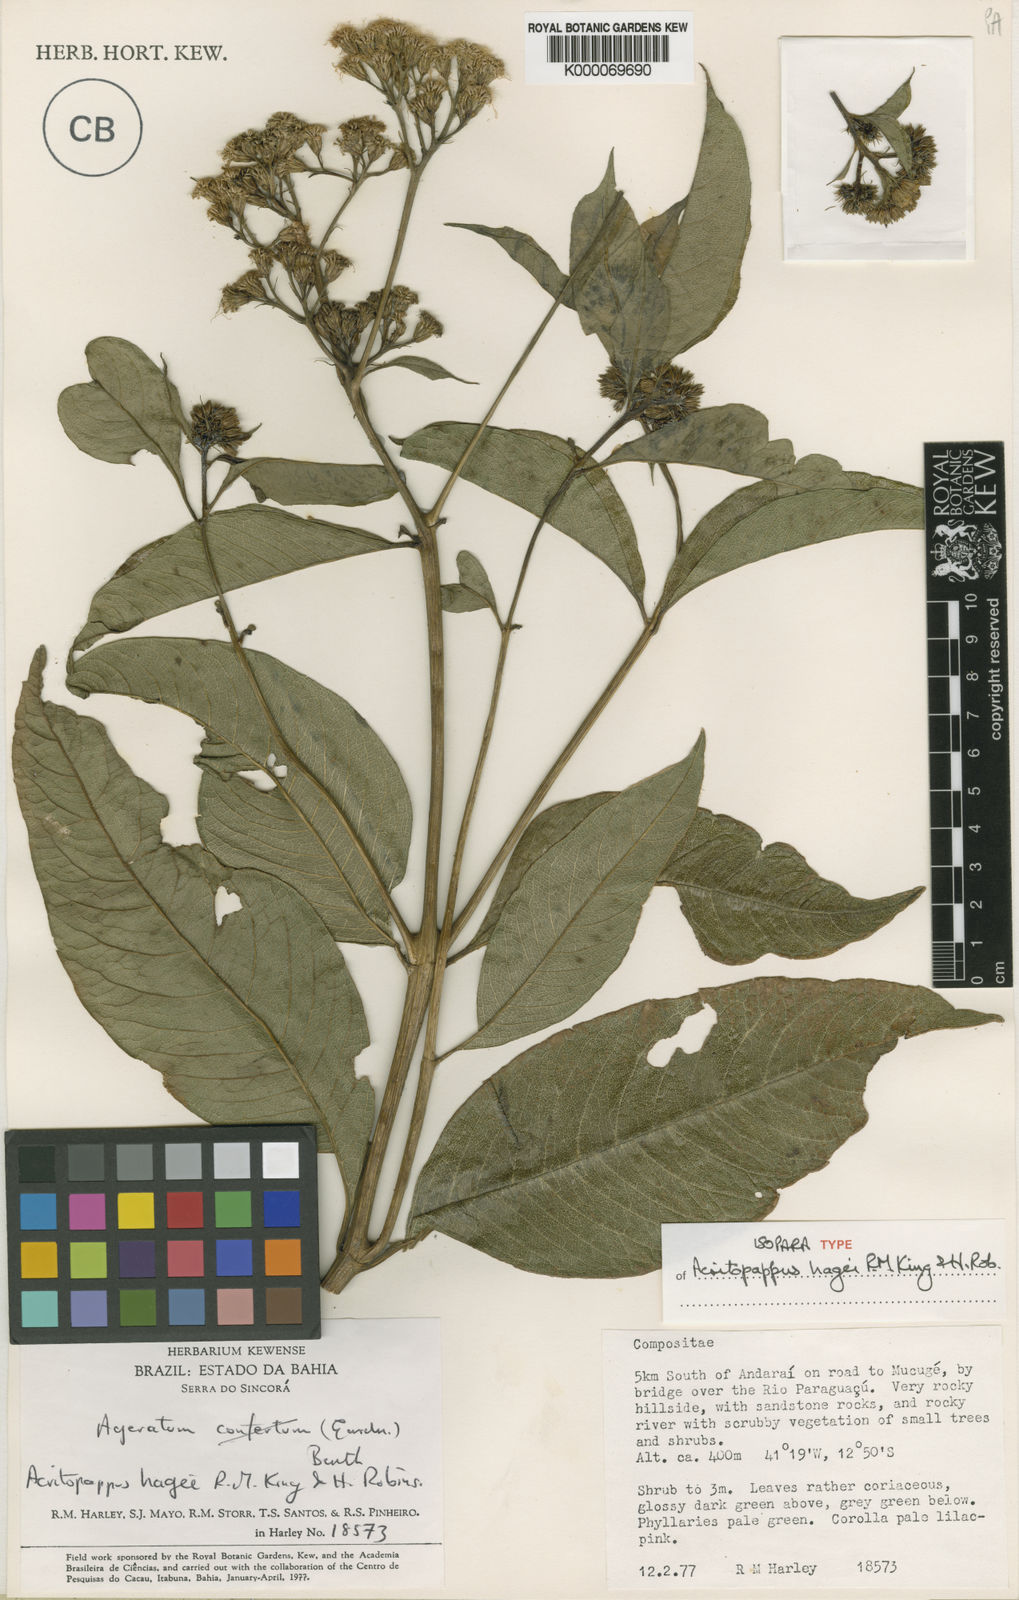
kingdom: Plantae
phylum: Tracheophyta
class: Magnoliopsida
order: Asterales
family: Asteraceae
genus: Acritopappus
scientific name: Acritopappus heterolepis
